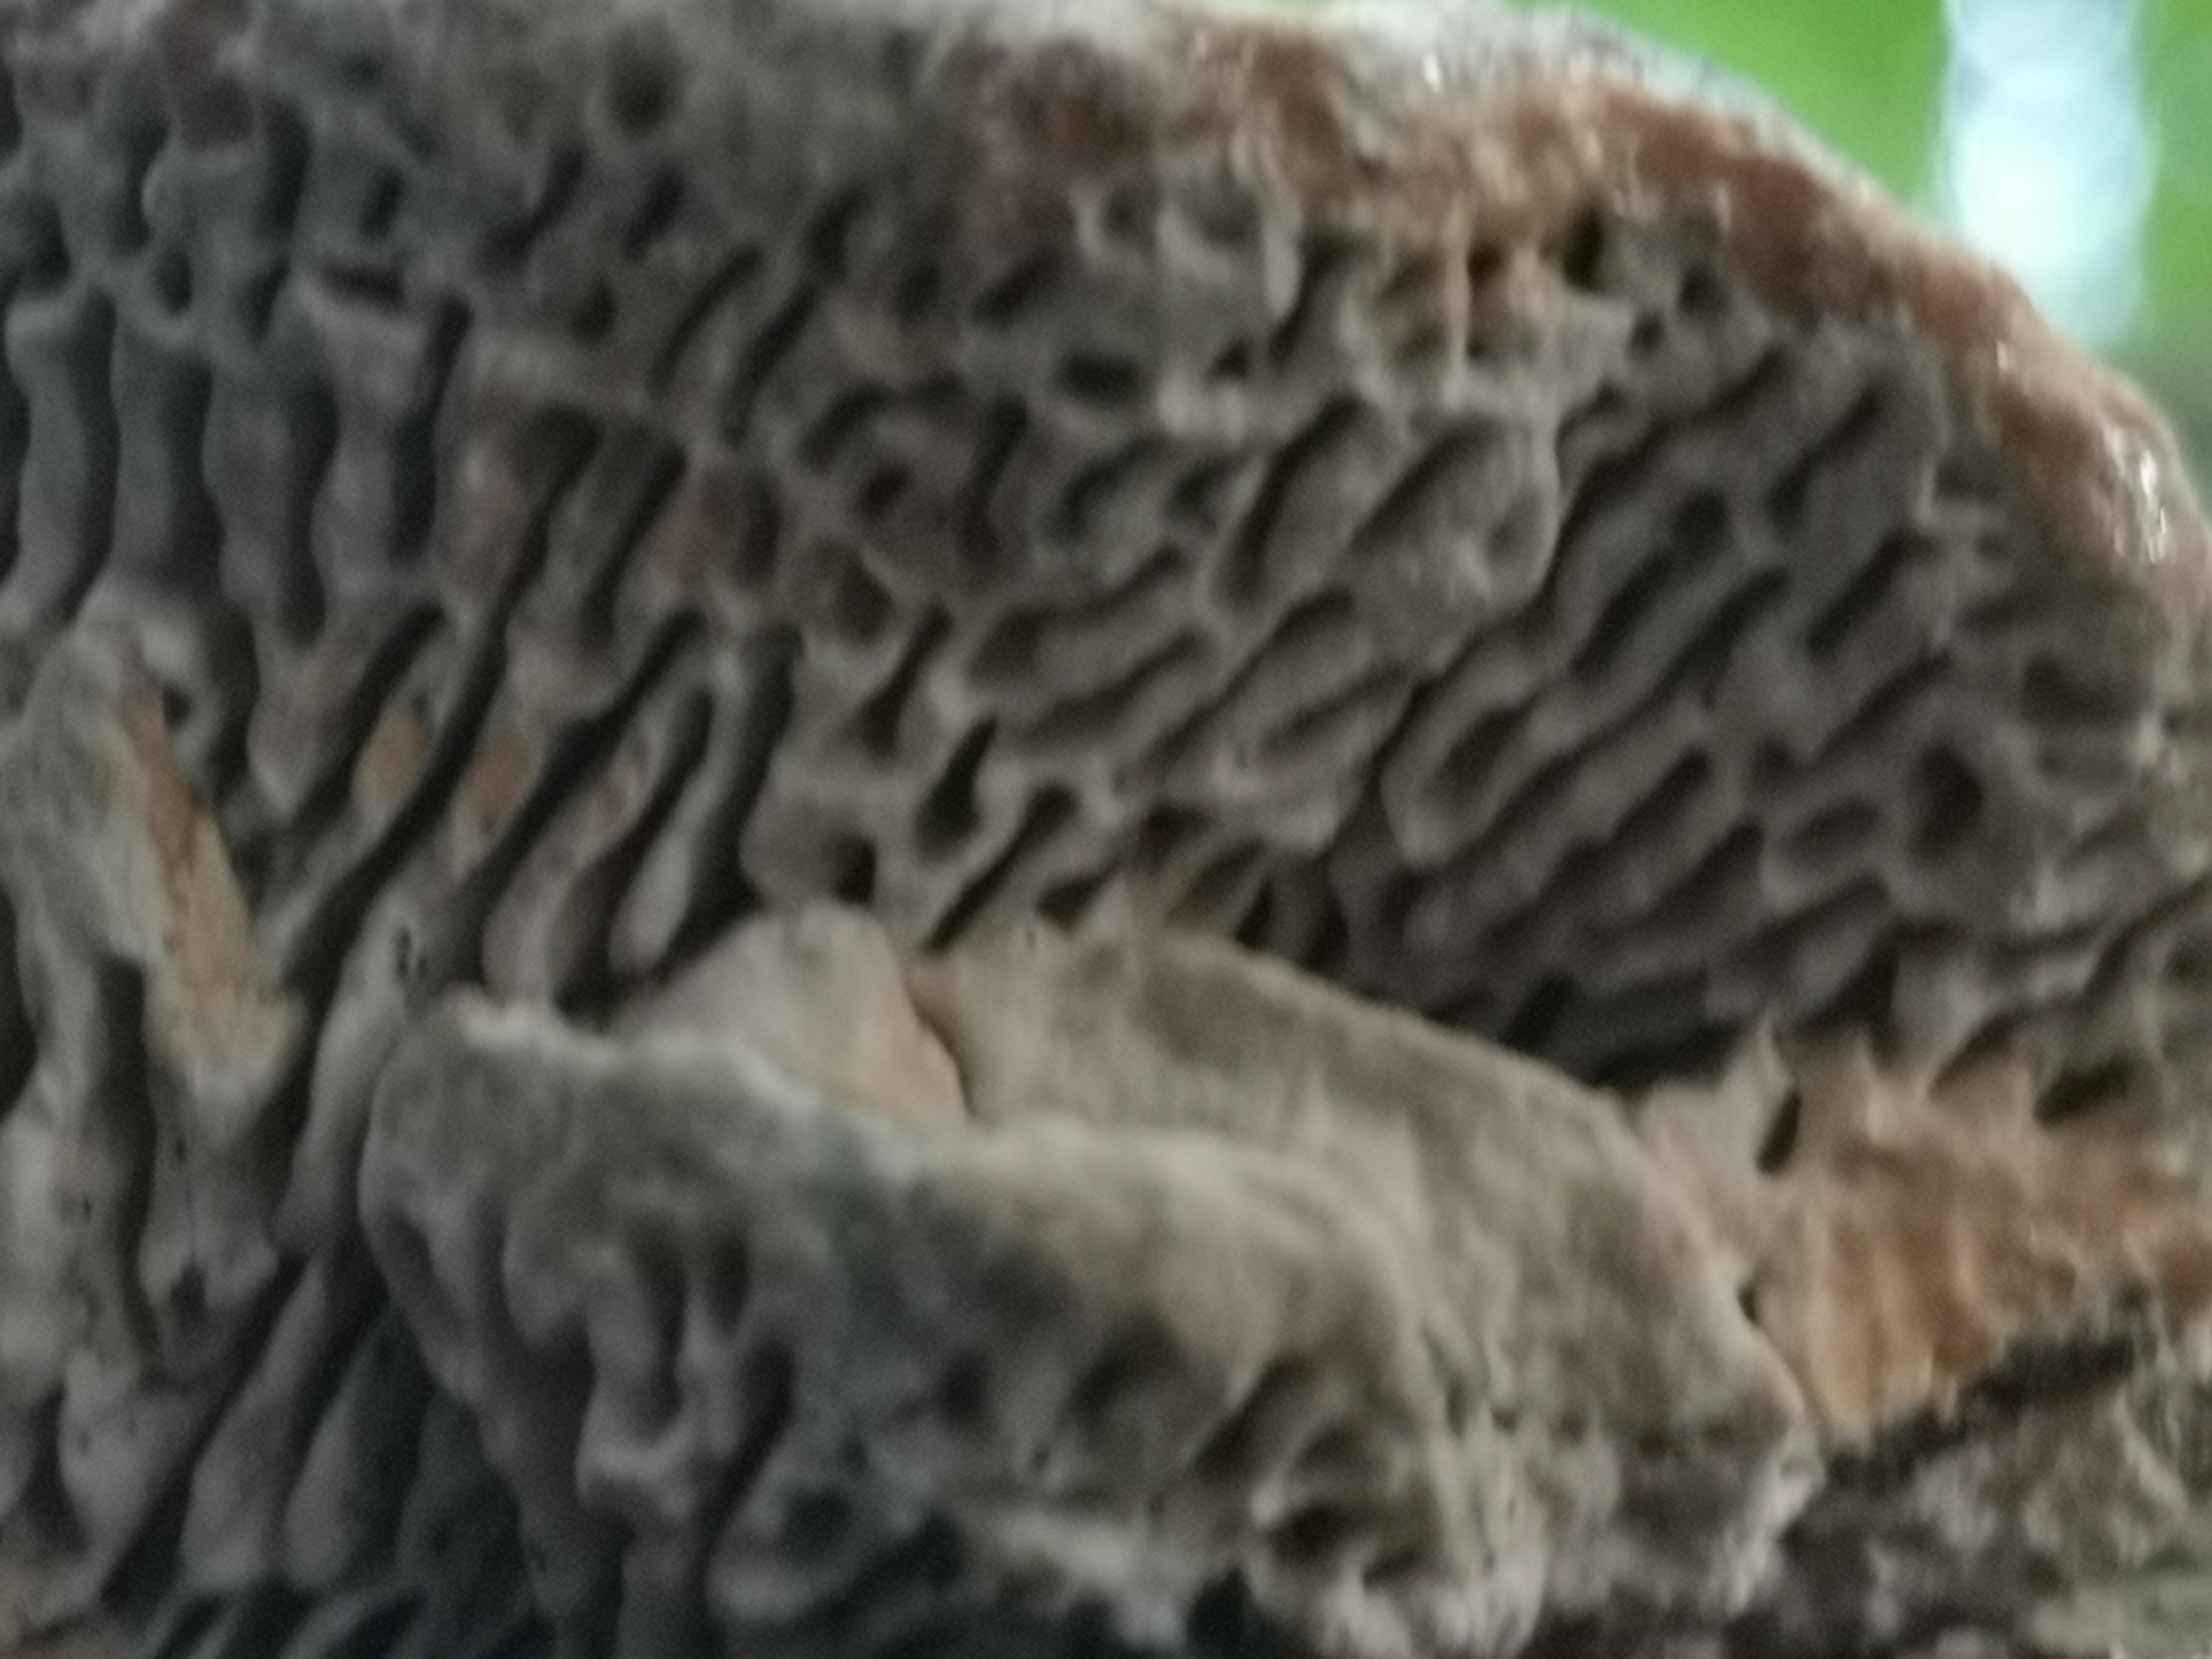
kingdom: Fungi
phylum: Basidiomycota
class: Agaricomycetes
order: Polyporales
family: Polyporaceae
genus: Podofomes
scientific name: Podofomes mollis
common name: blød begporesvamp
